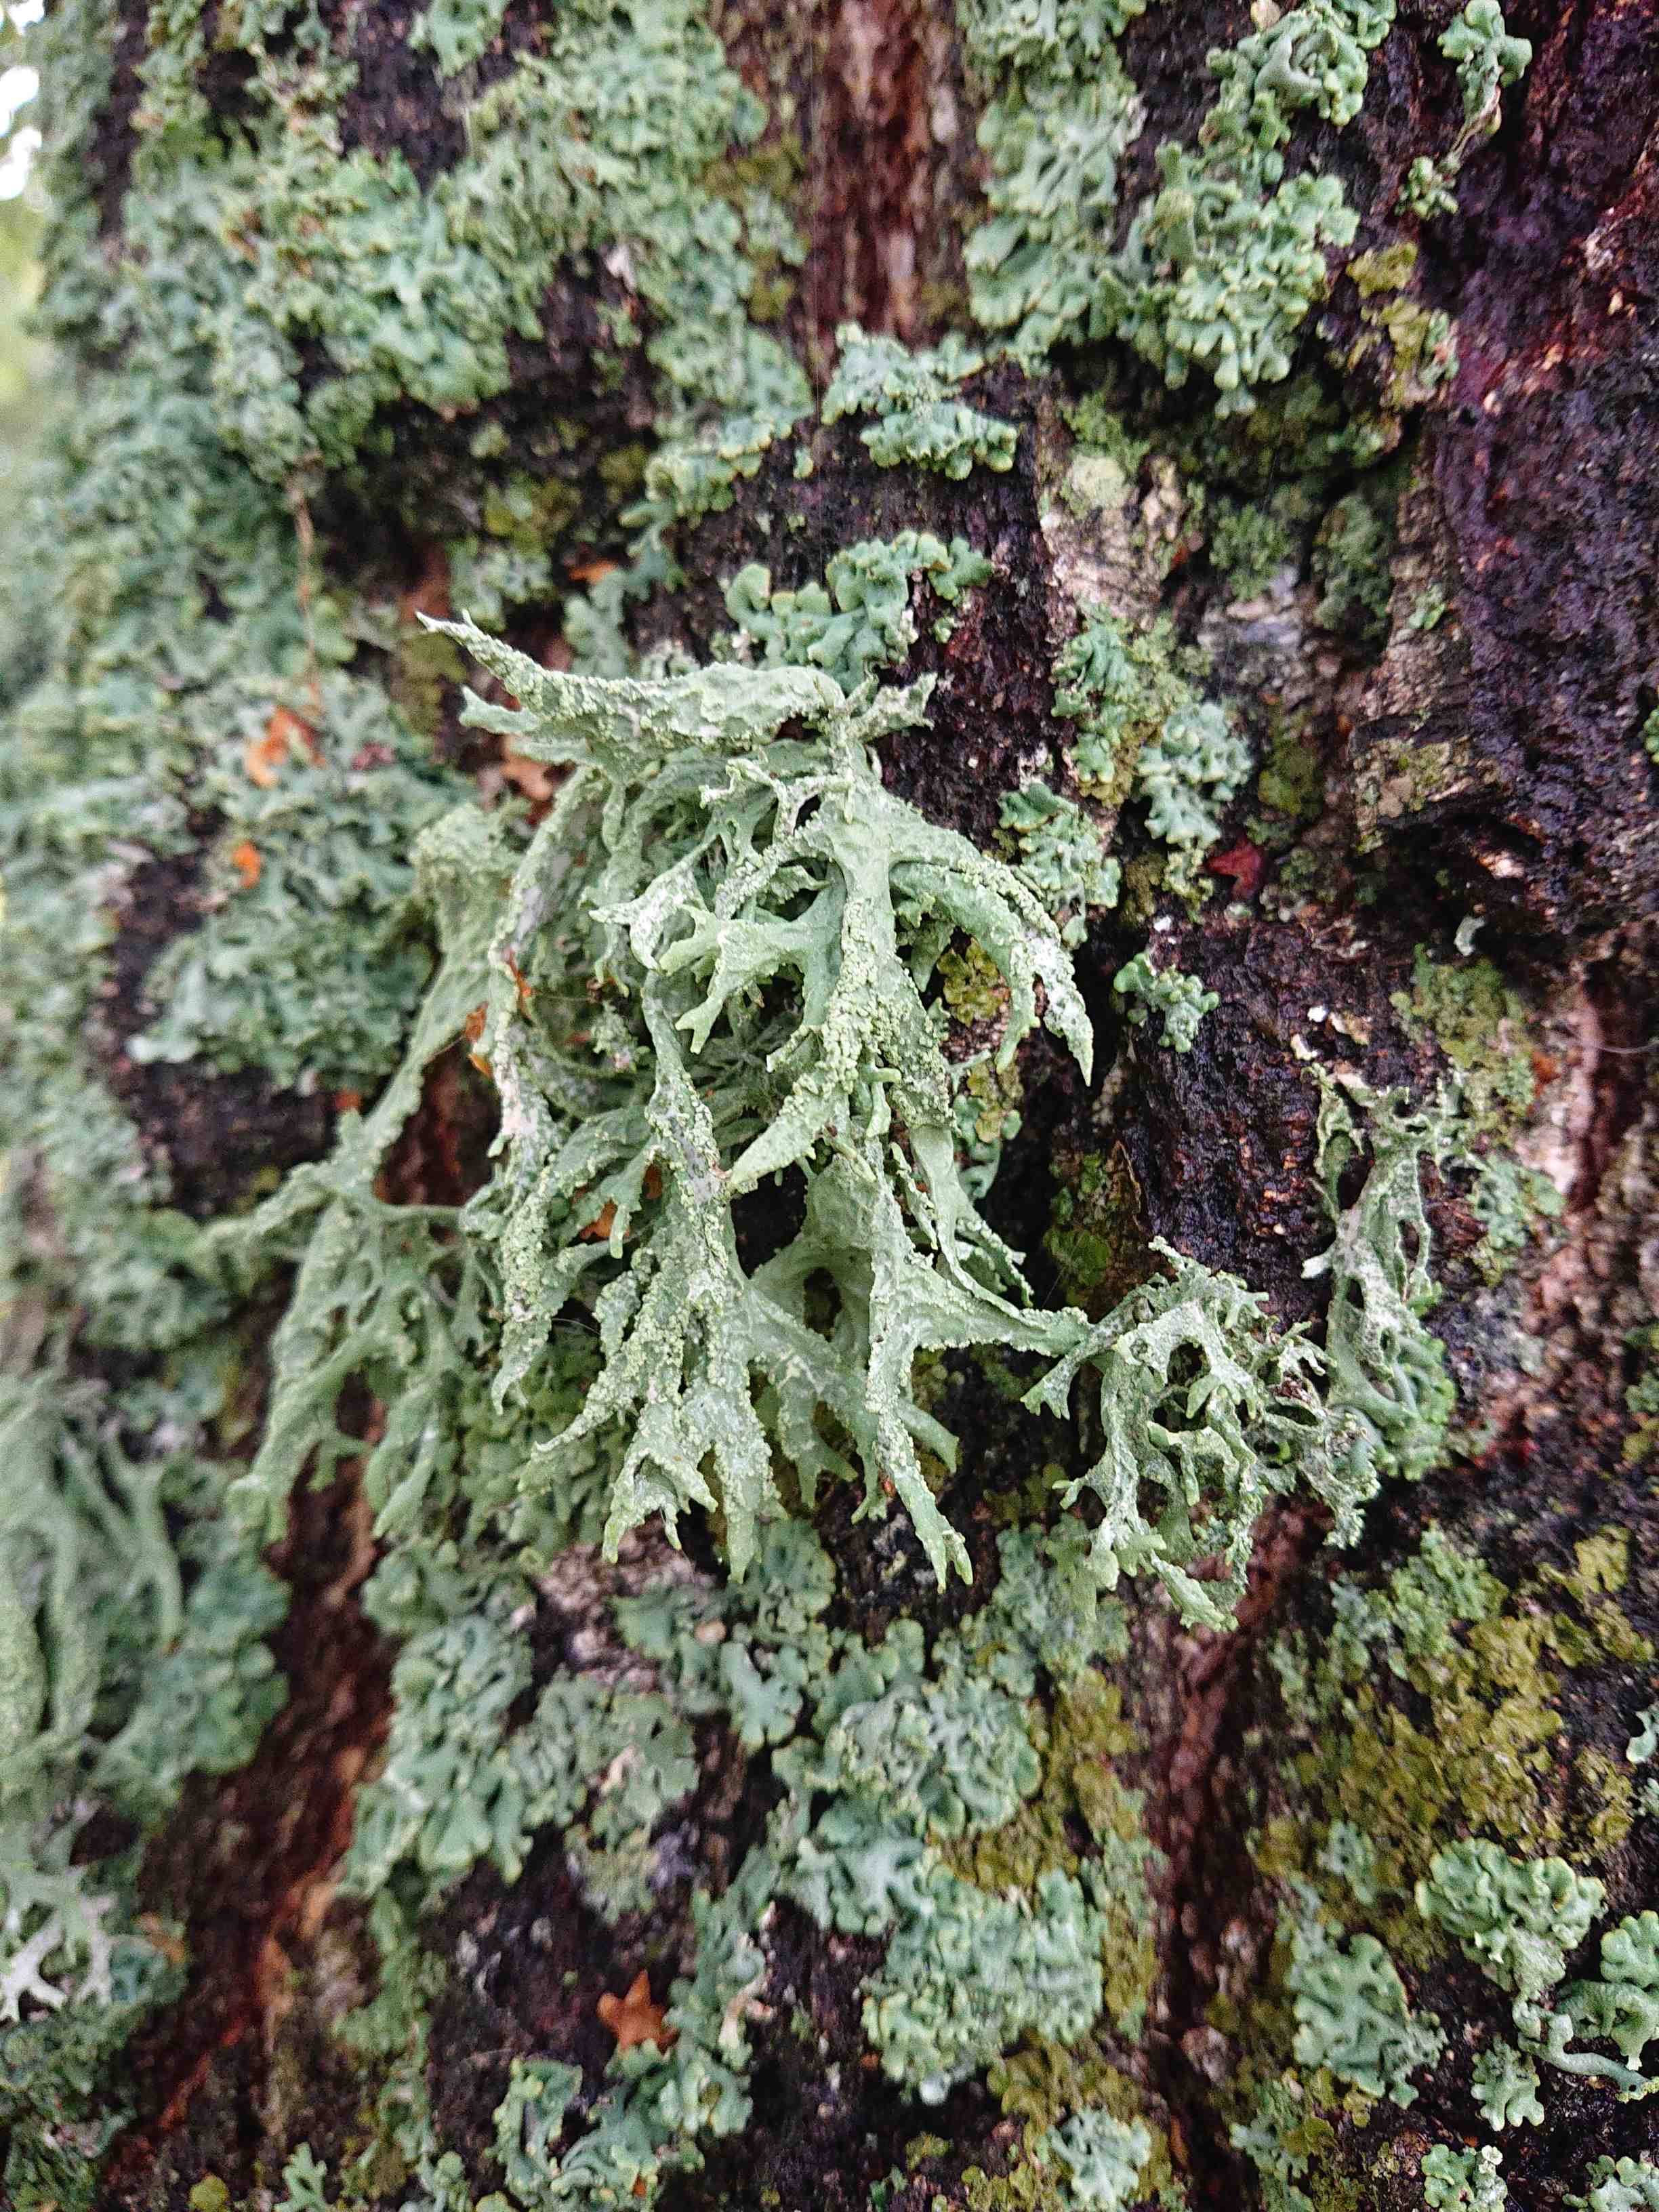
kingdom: Fungi
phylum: Ascomycota
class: Lecanoromycetes
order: Lecanorales
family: Parmeliaceae
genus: Evernia
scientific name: Evernia prunastri
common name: almindelig slåenlav
